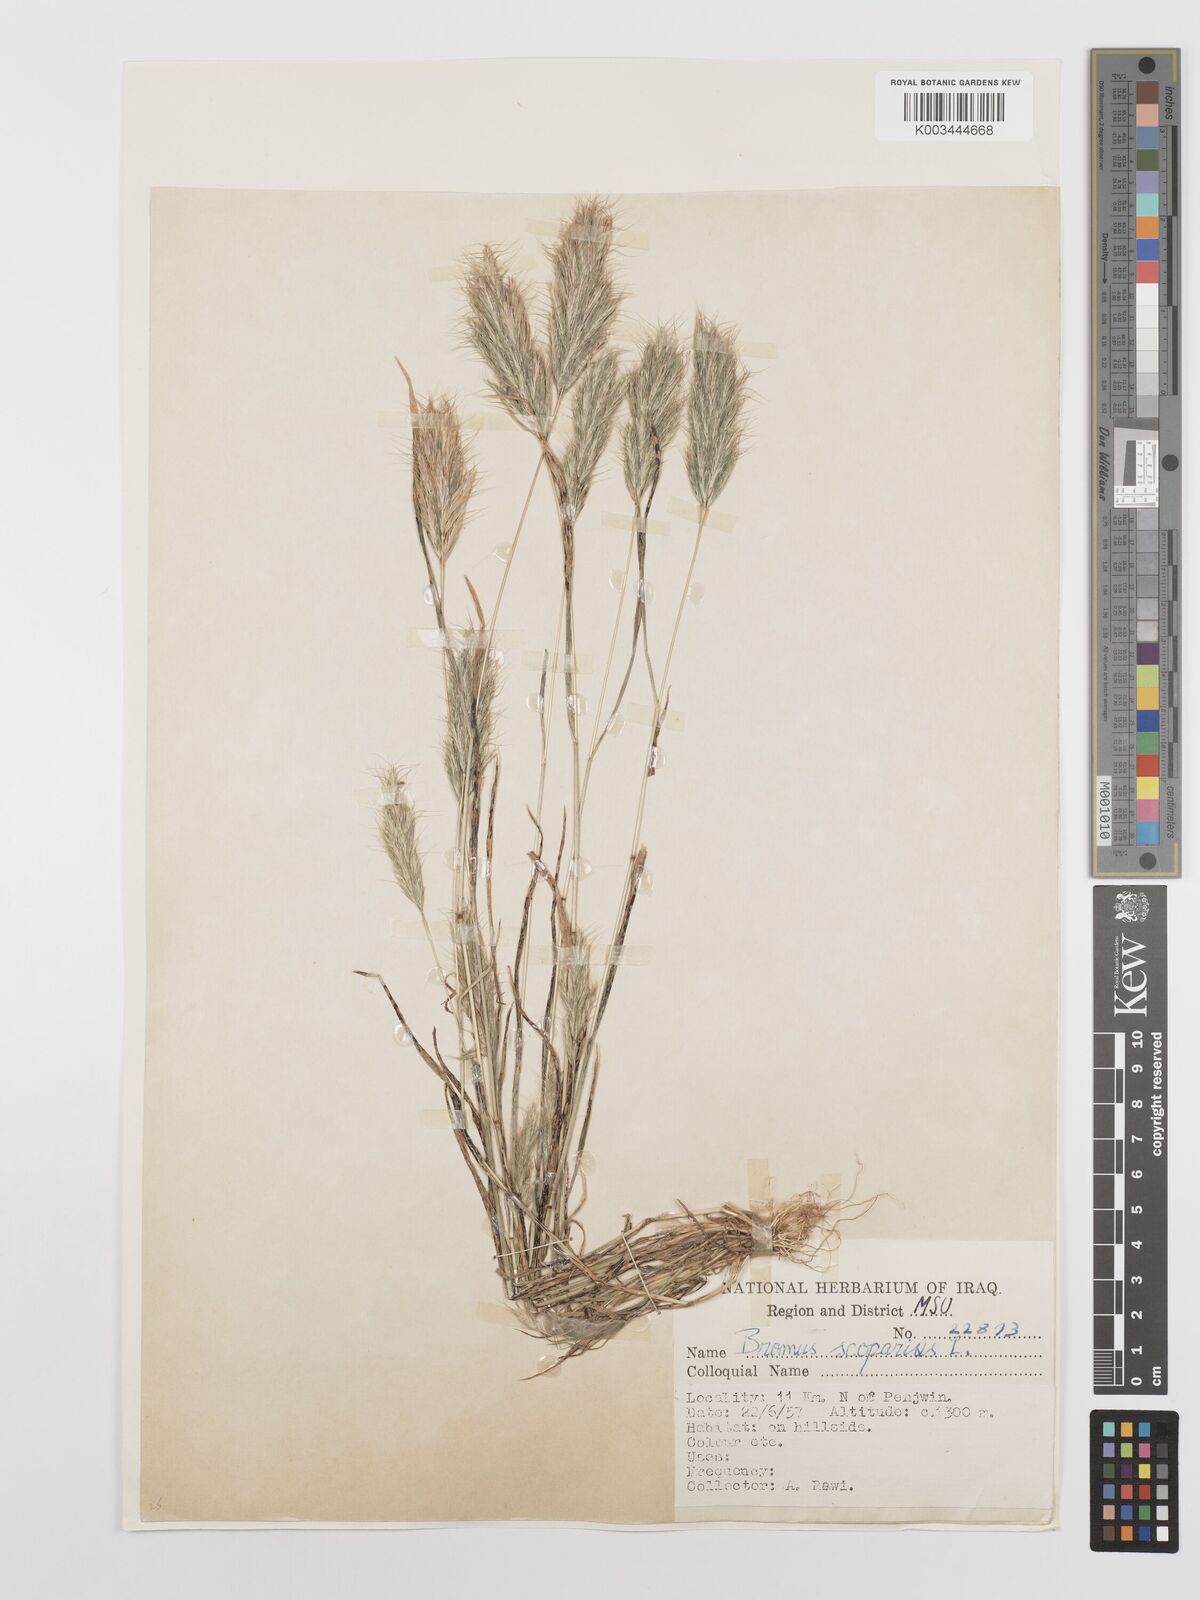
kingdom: Plantae
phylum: Tracheophyta
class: Liliopsida
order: Poales
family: Poaceae
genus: Bromus
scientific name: Bromus scoparius
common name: Broom brome
